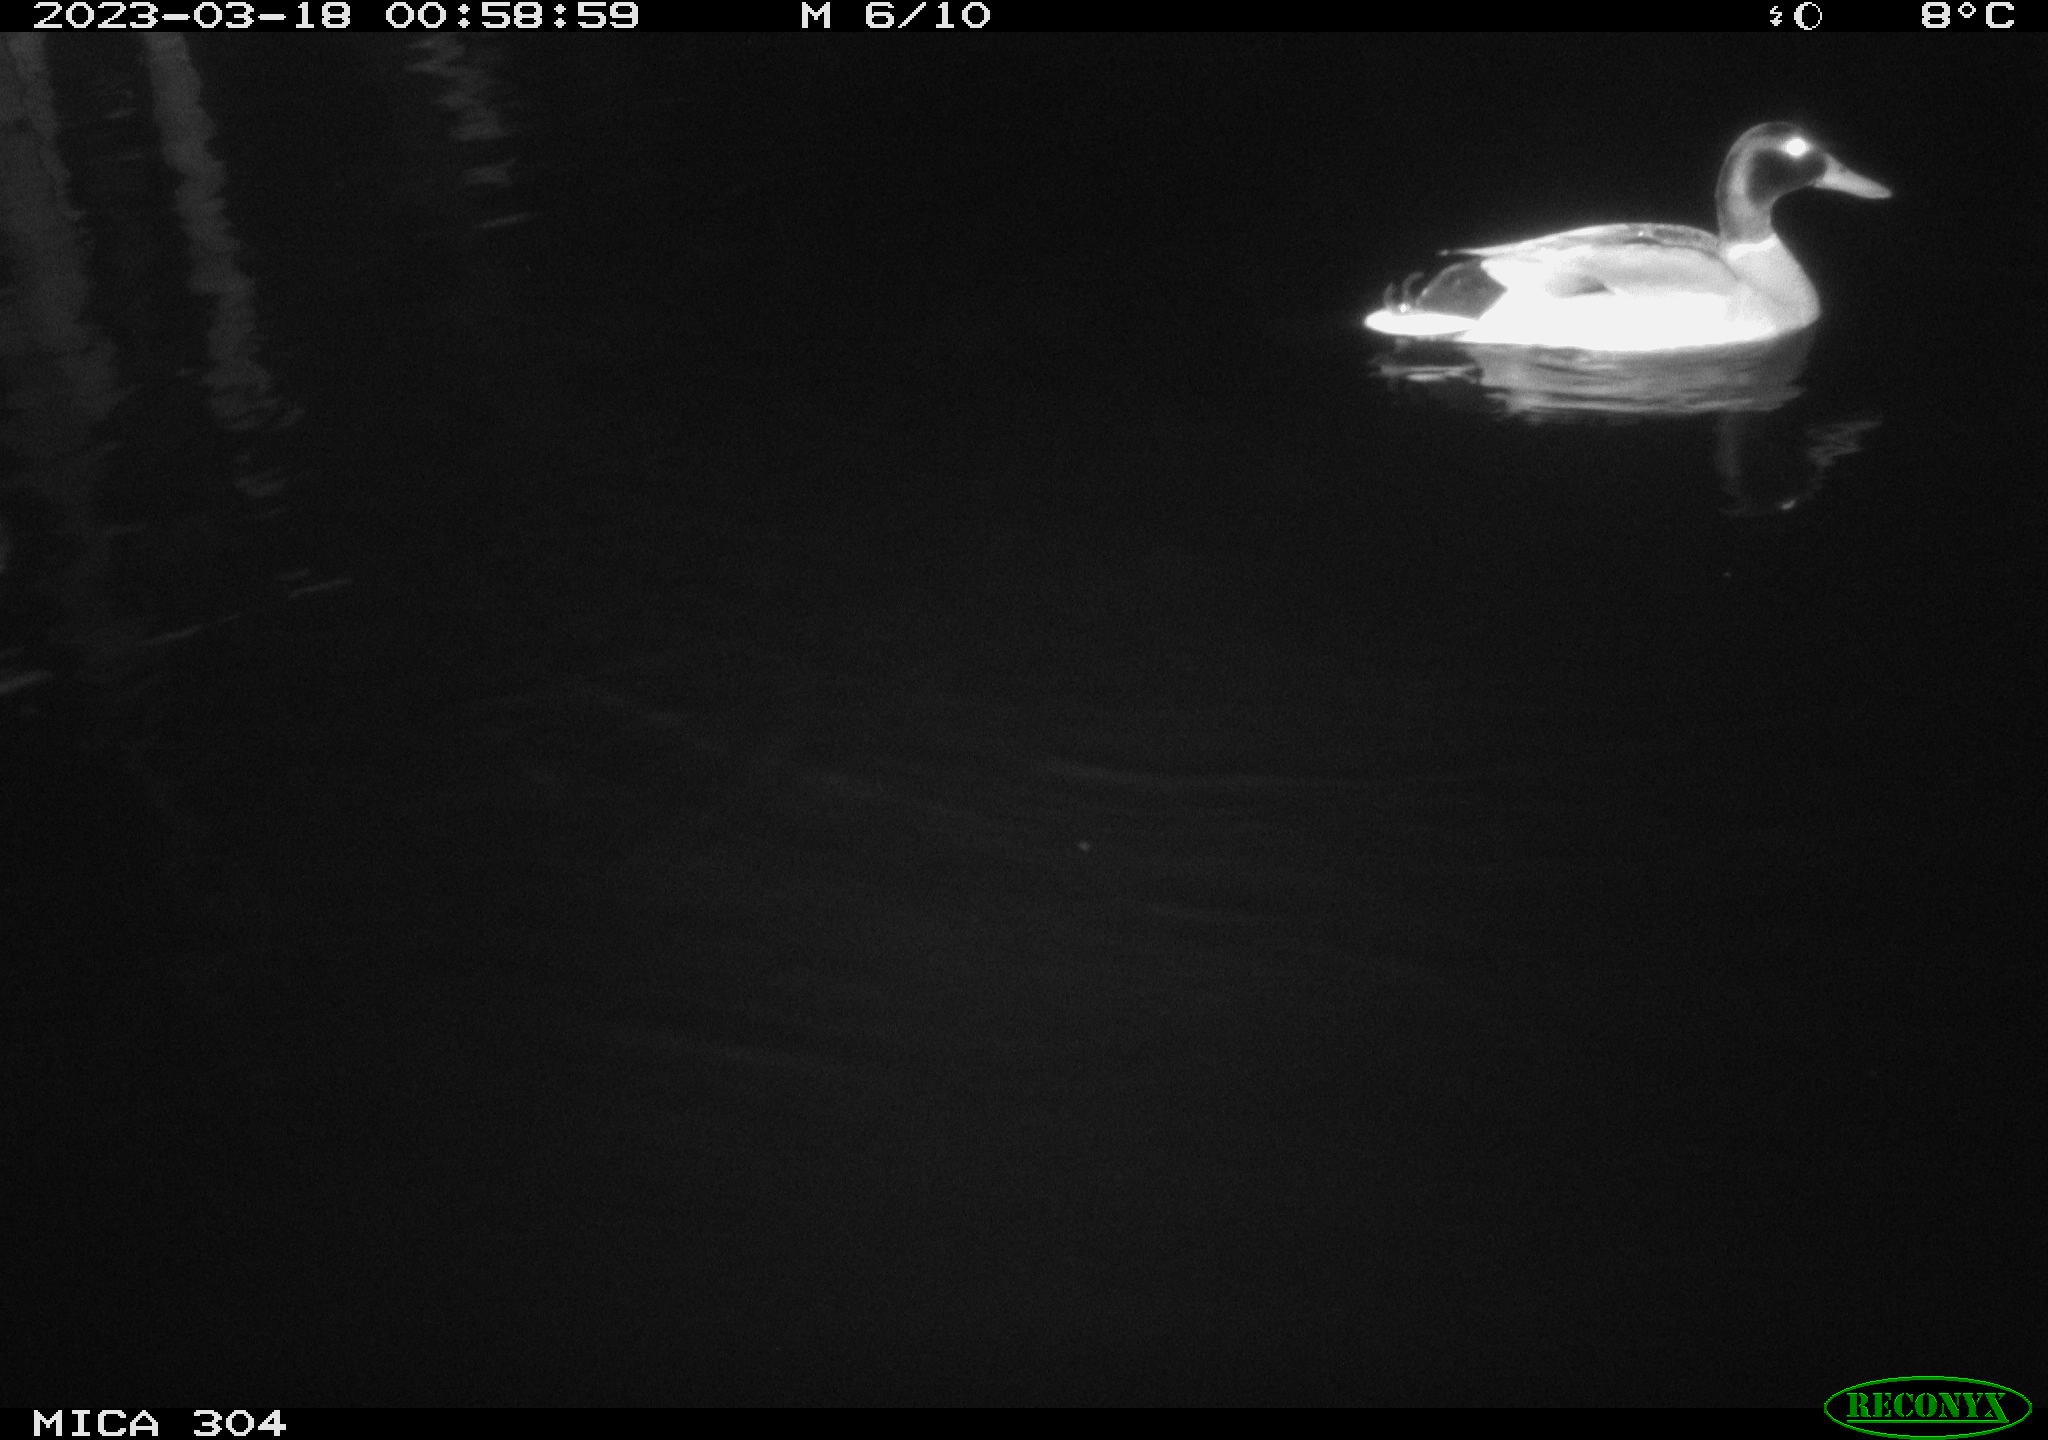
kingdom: Animalia
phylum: Chordata
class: Aves
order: Anseriformes
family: Anatidae
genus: Anas
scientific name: Anas
